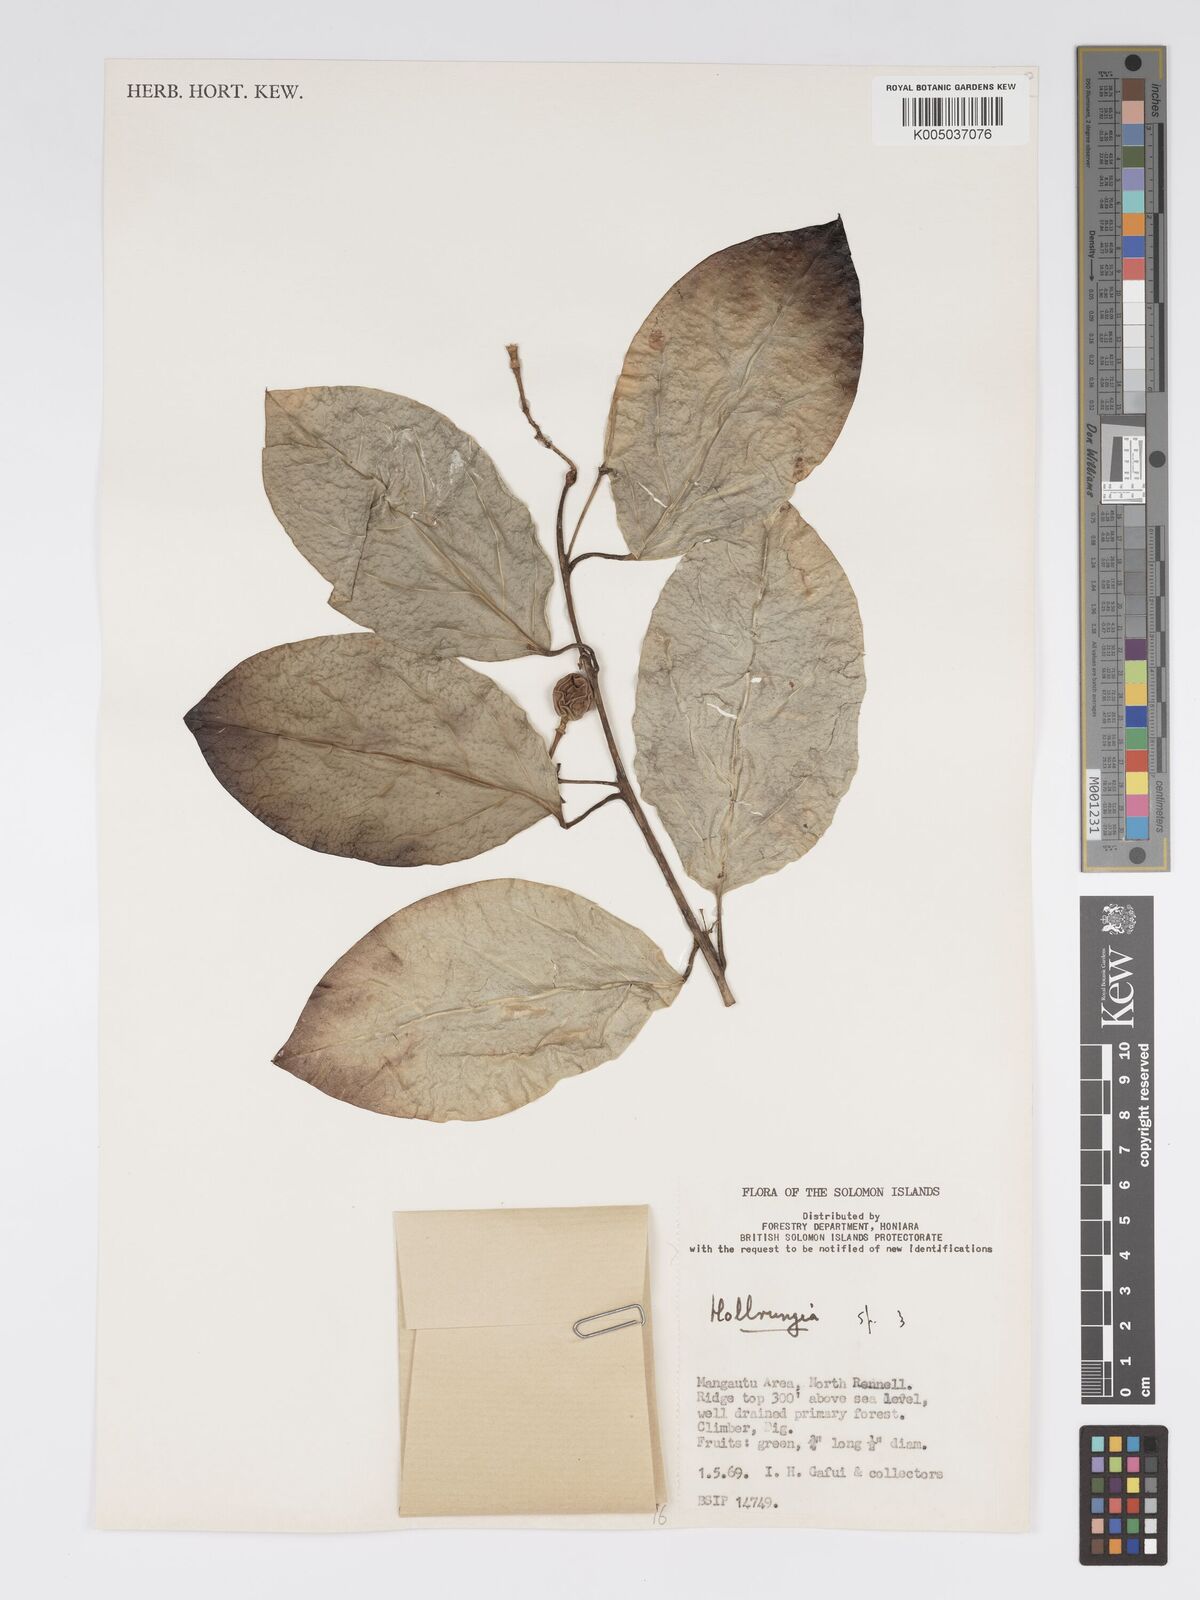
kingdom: Plantae
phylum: Tracheophyta
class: Magnoliopsida
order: Malpighiales
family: Passifloraceae
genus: Passiflora
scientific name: Passiflora aurantioides
